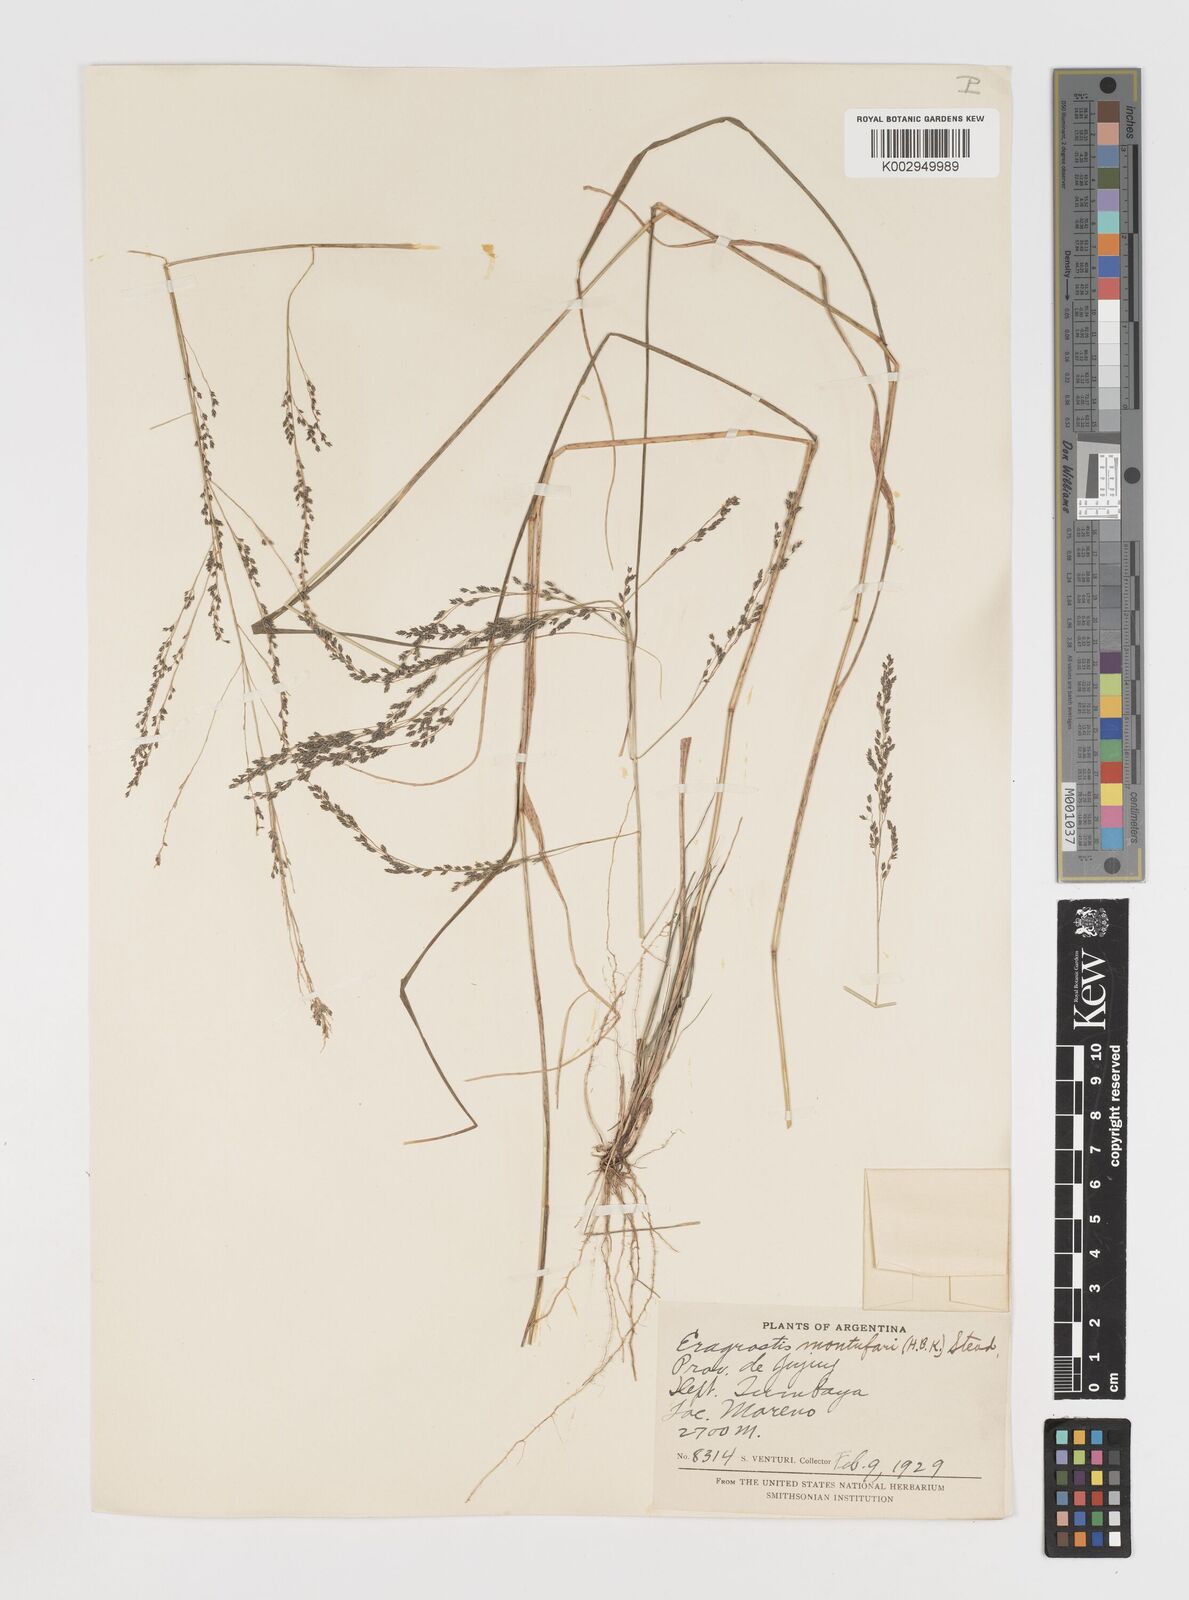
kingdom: Plantae
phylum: Tracheophyta
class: Liliopsida
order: Poales
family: Poaceae
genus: Eragrostis
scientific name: Eragrostis pastoensis
